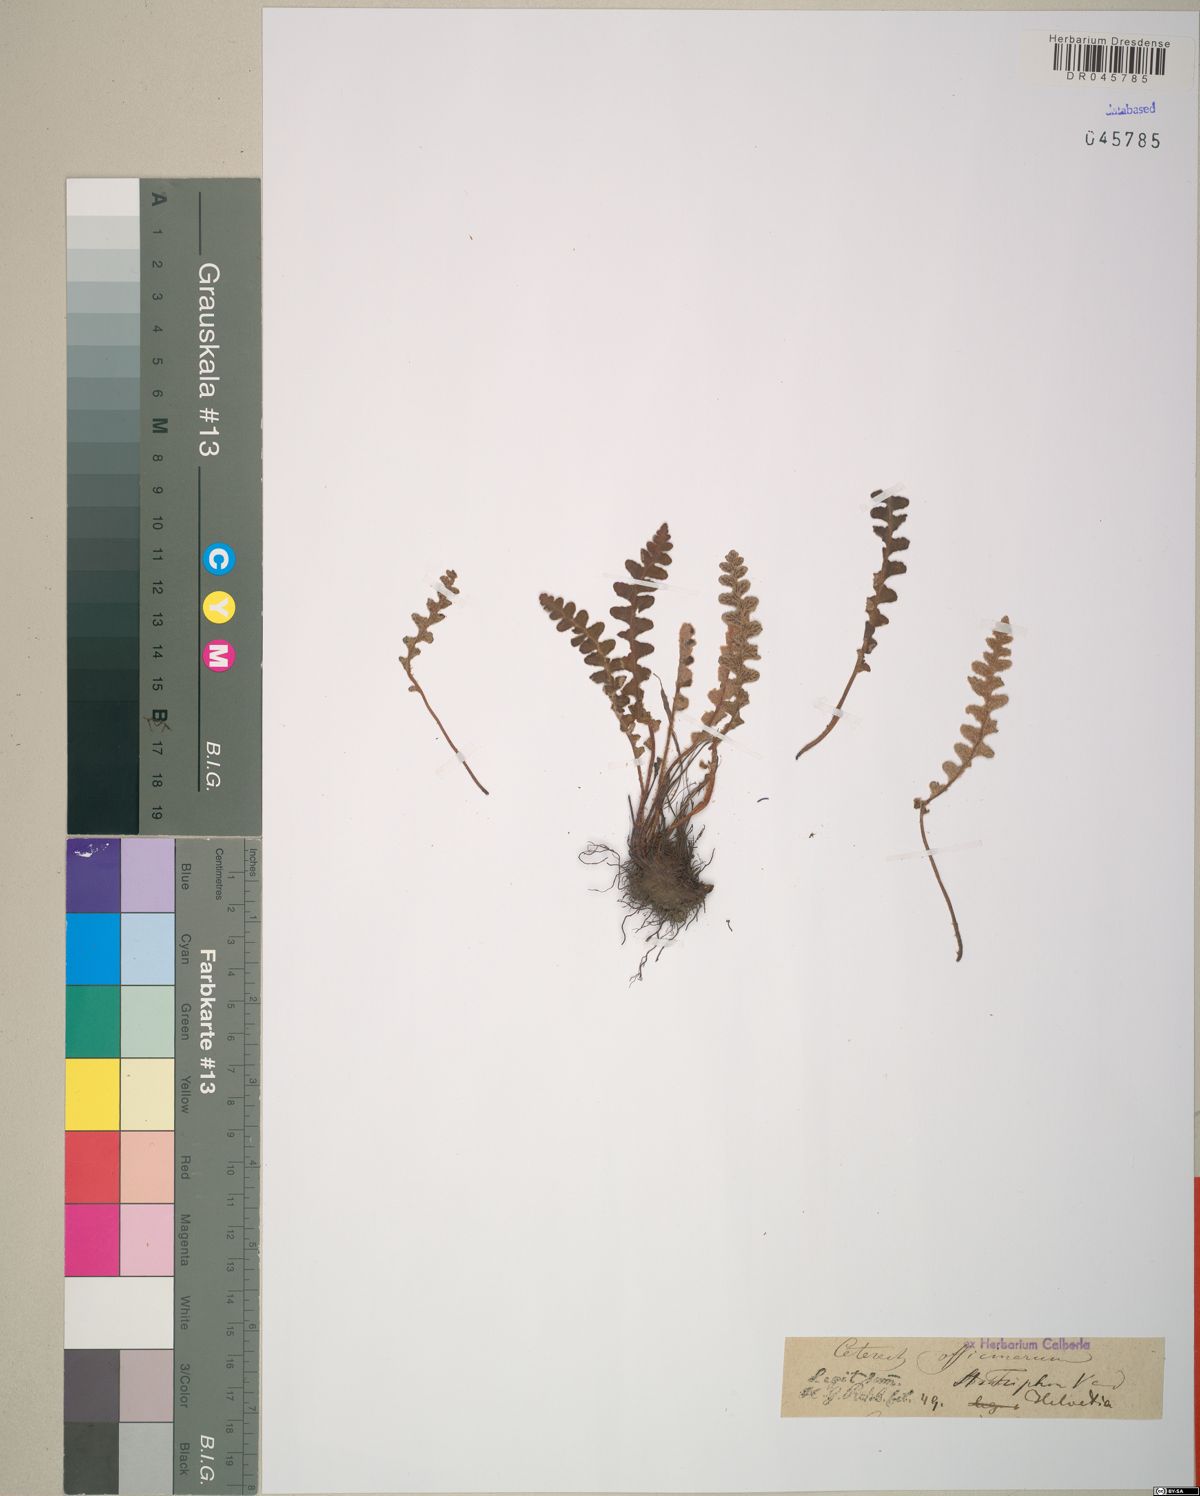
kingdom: Plantae
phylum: Tracheophyta
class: Polypodiopsida
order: Polypodiales
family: Aspleniaceae
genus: Asplenium
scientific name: Asplenium ceterach
